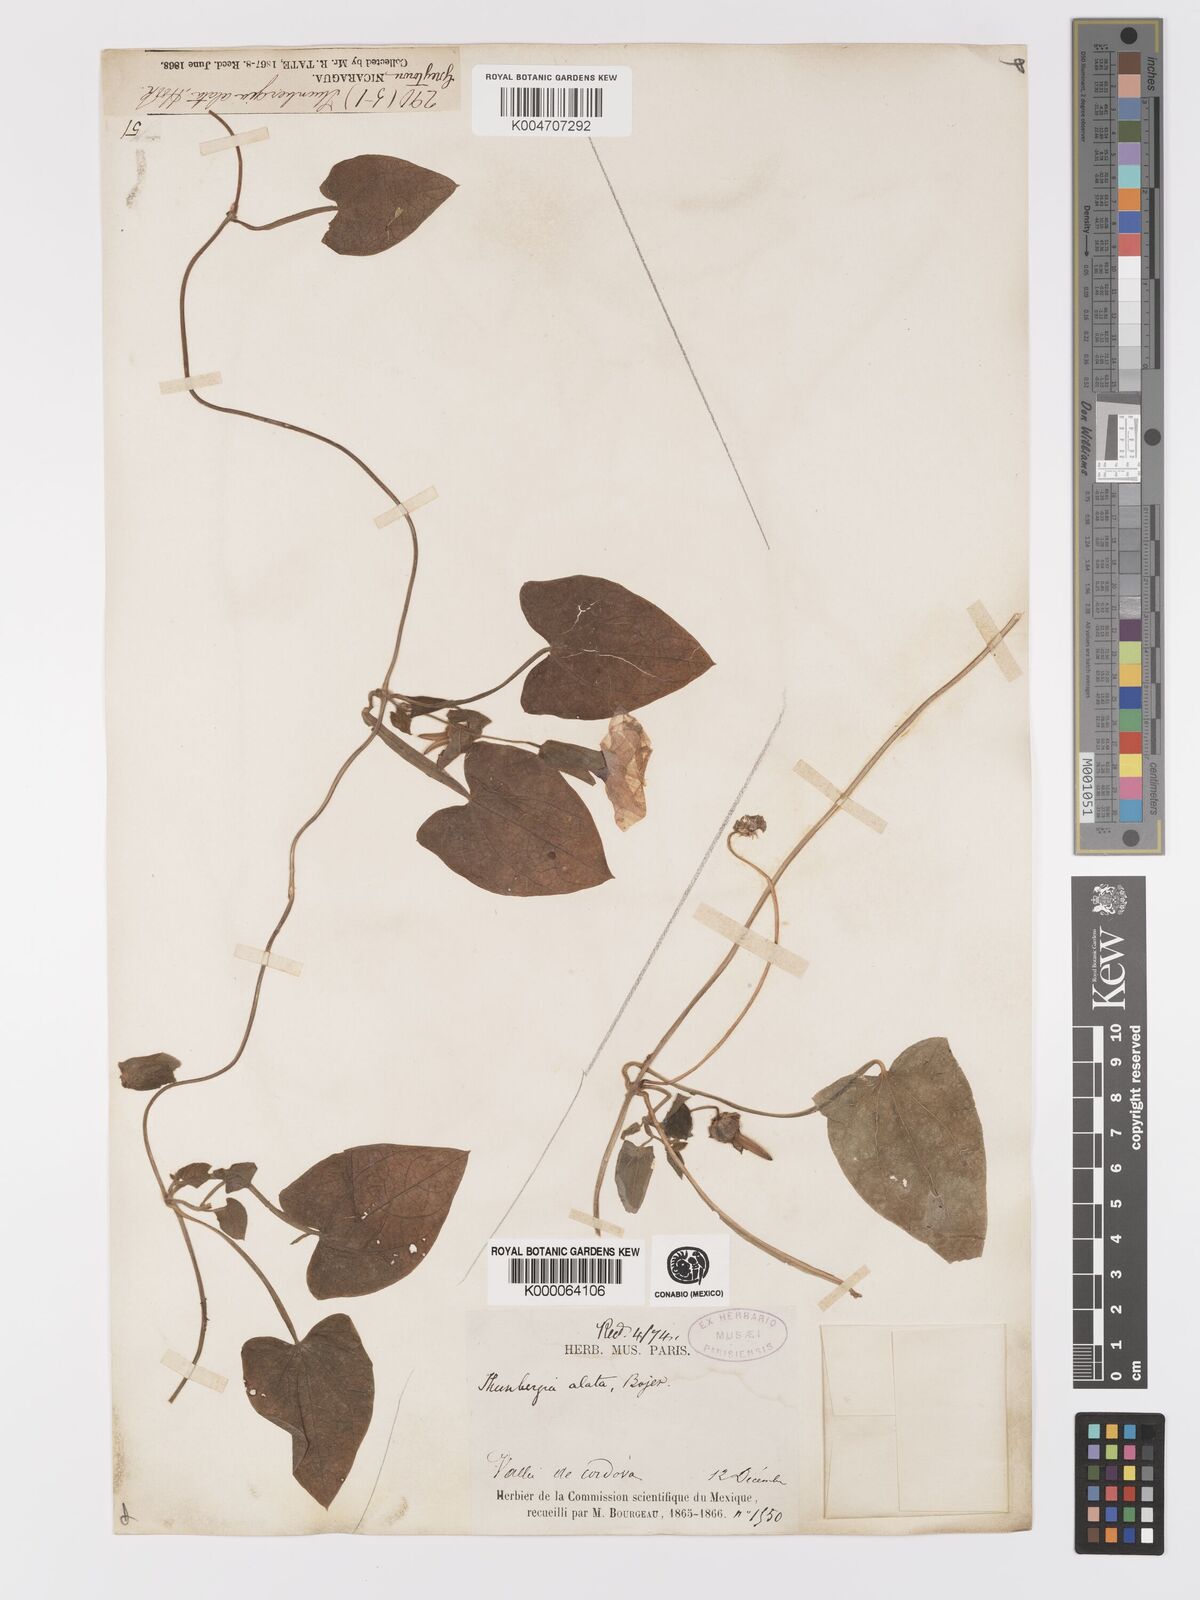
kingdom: Plantae
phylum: Tracheophyta
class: Magnoliopsida
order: Lamiales
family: Acanthaceae
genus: Thunbergia
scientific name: Thunbergia alata
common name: Blackeyed susan vine
